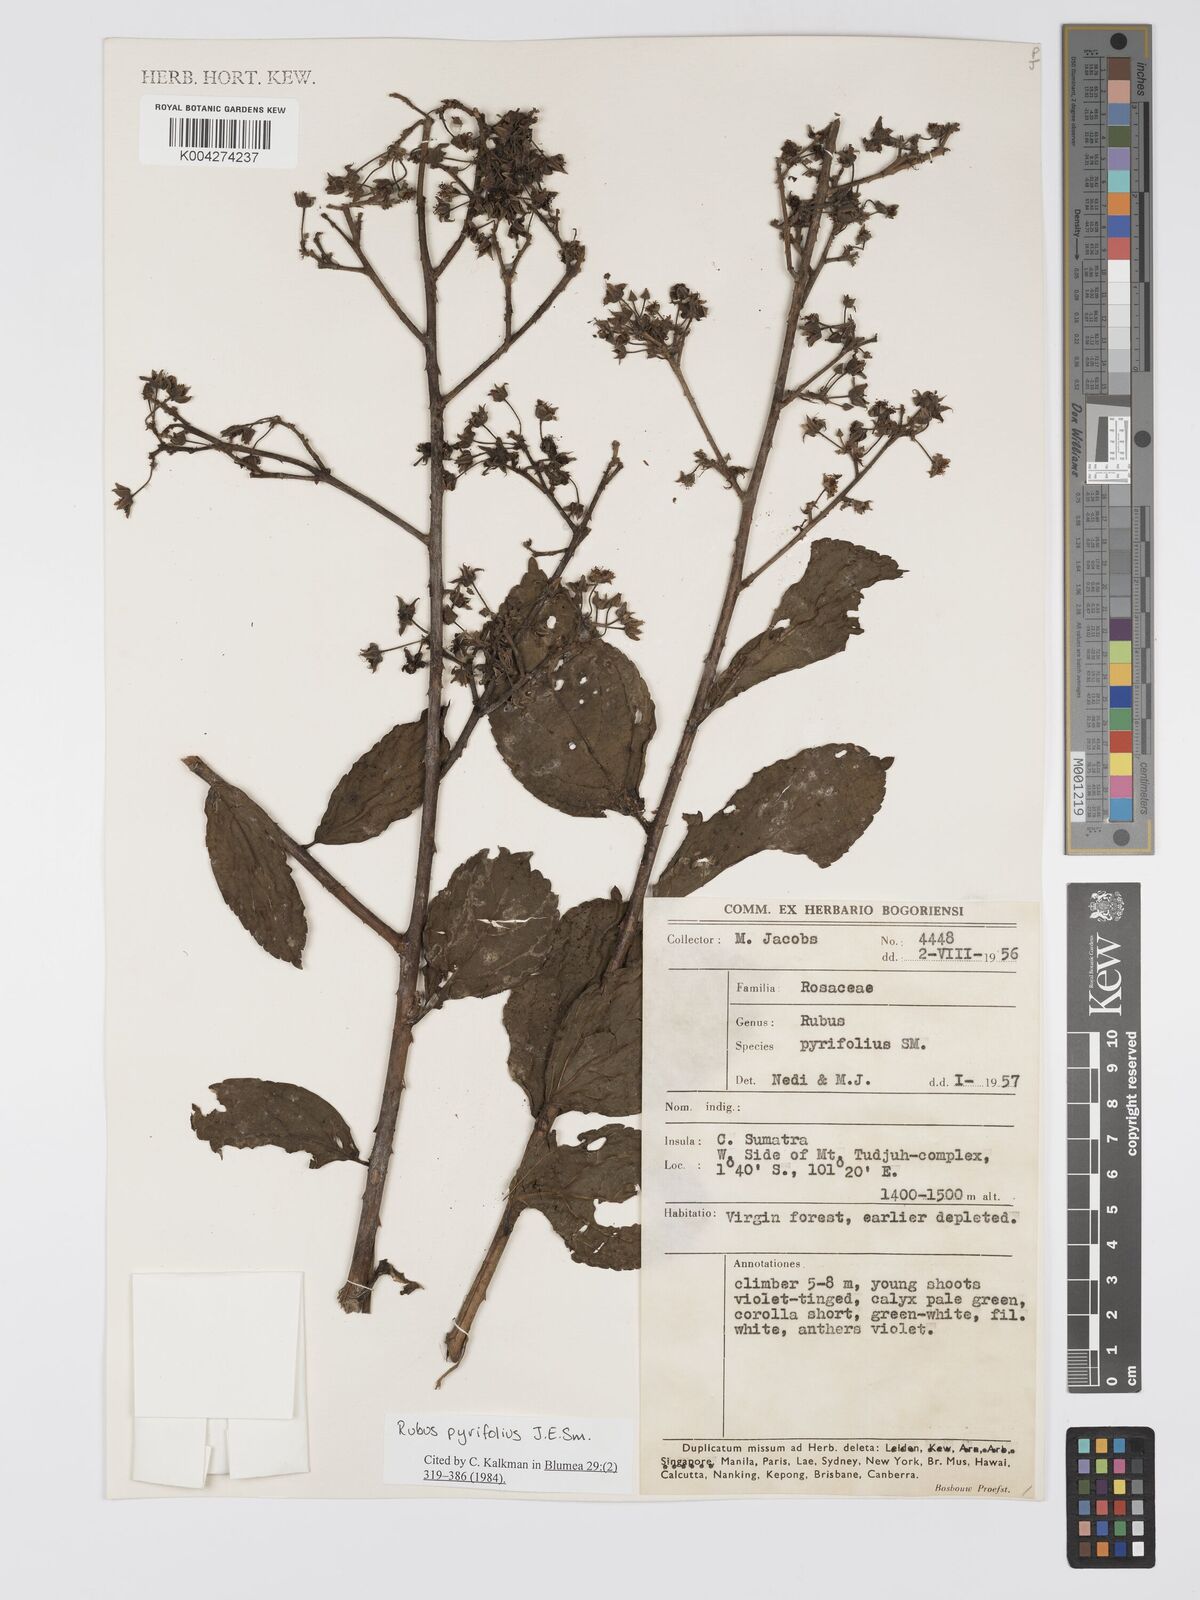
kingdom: Plantae
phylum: Tracheophyta
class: Magnoliopsida
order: Rosales
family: Rosaceae
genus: Rubus
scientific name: Rubus pirifolius
